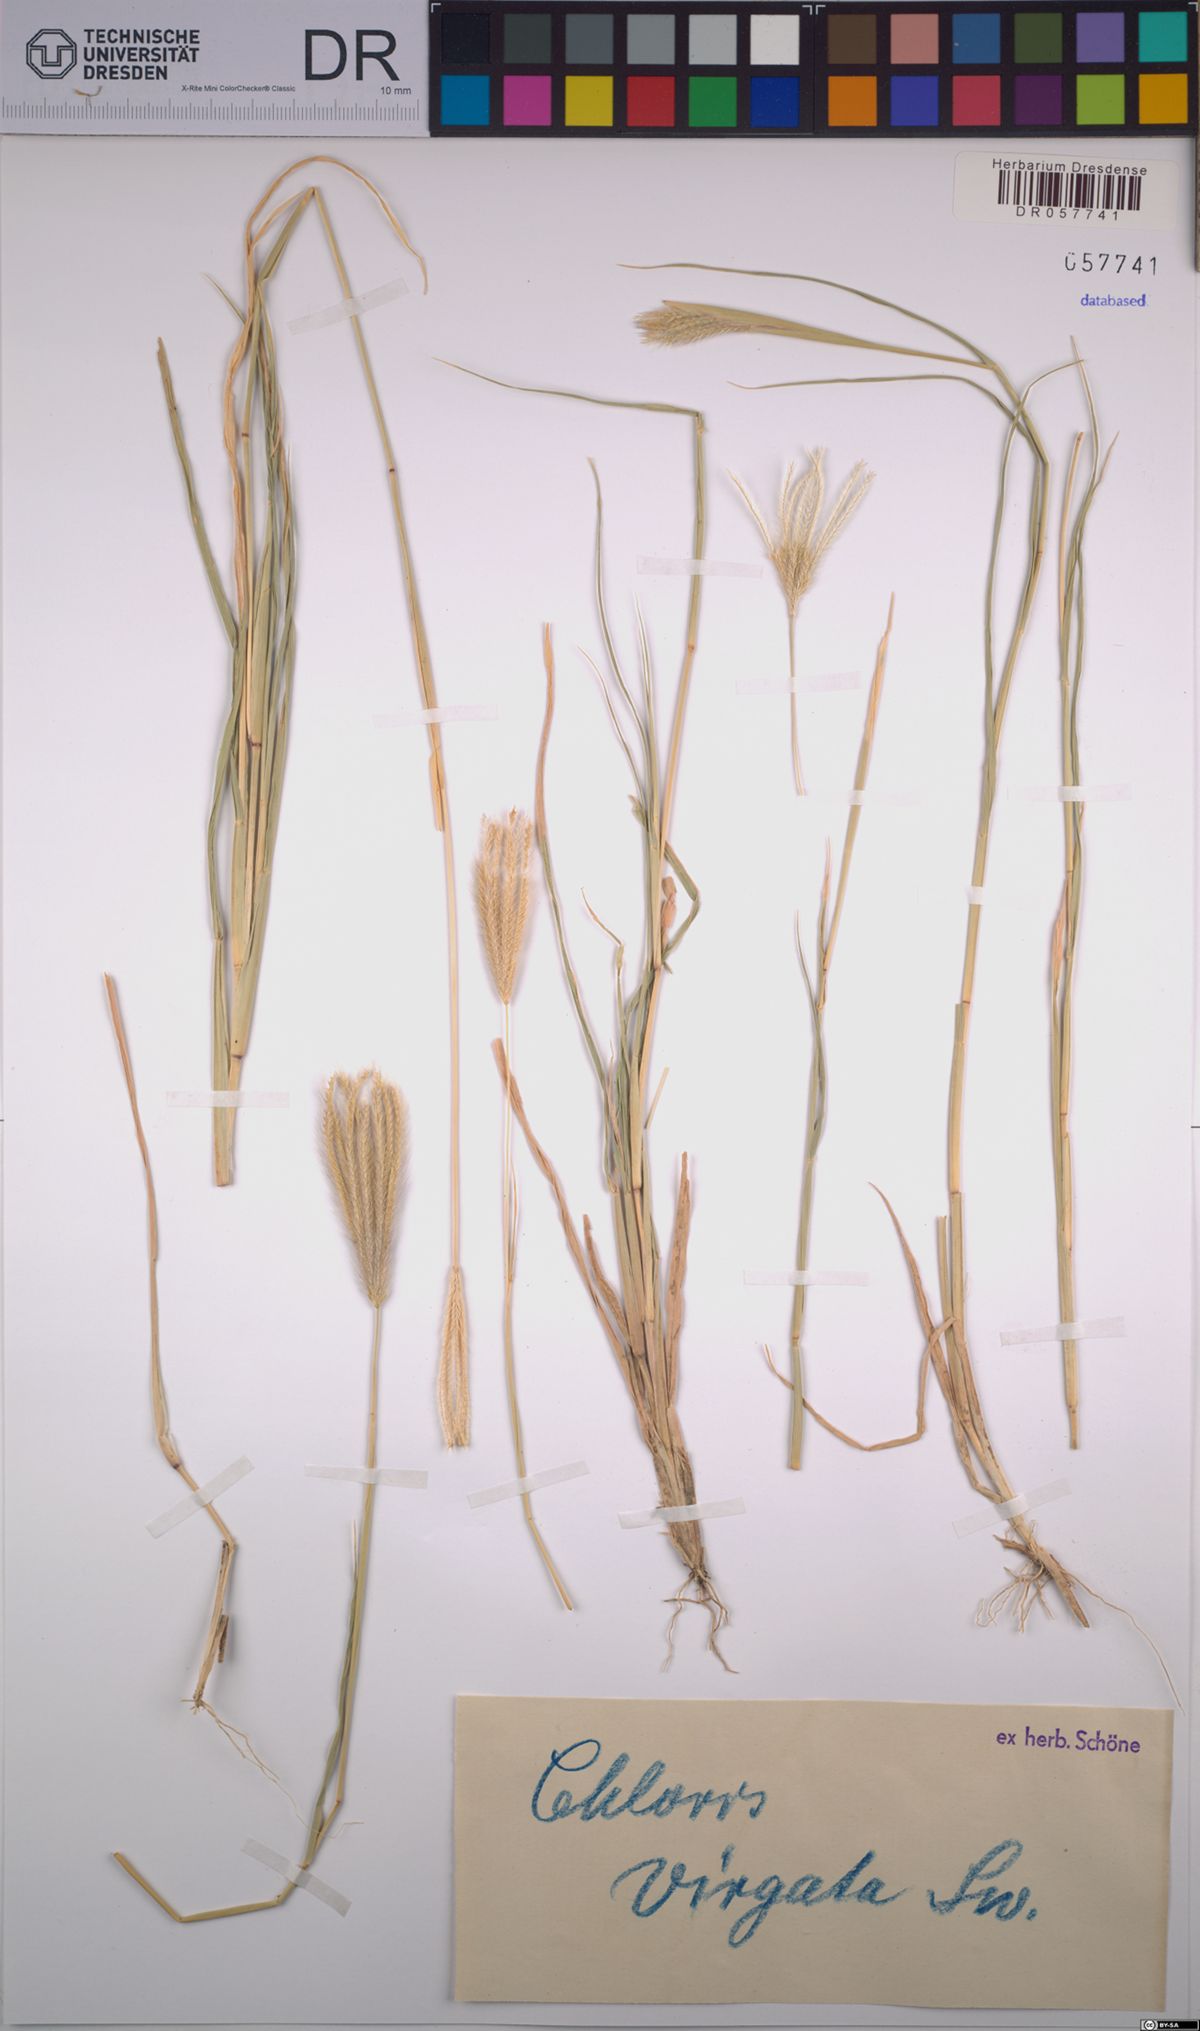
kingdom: Plantae
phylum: Tracheophyta
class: Liliopsida
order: Poales
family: Poaceae
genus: Chloris
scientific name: Chloris virgata
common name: Feathery rhodes-grass
